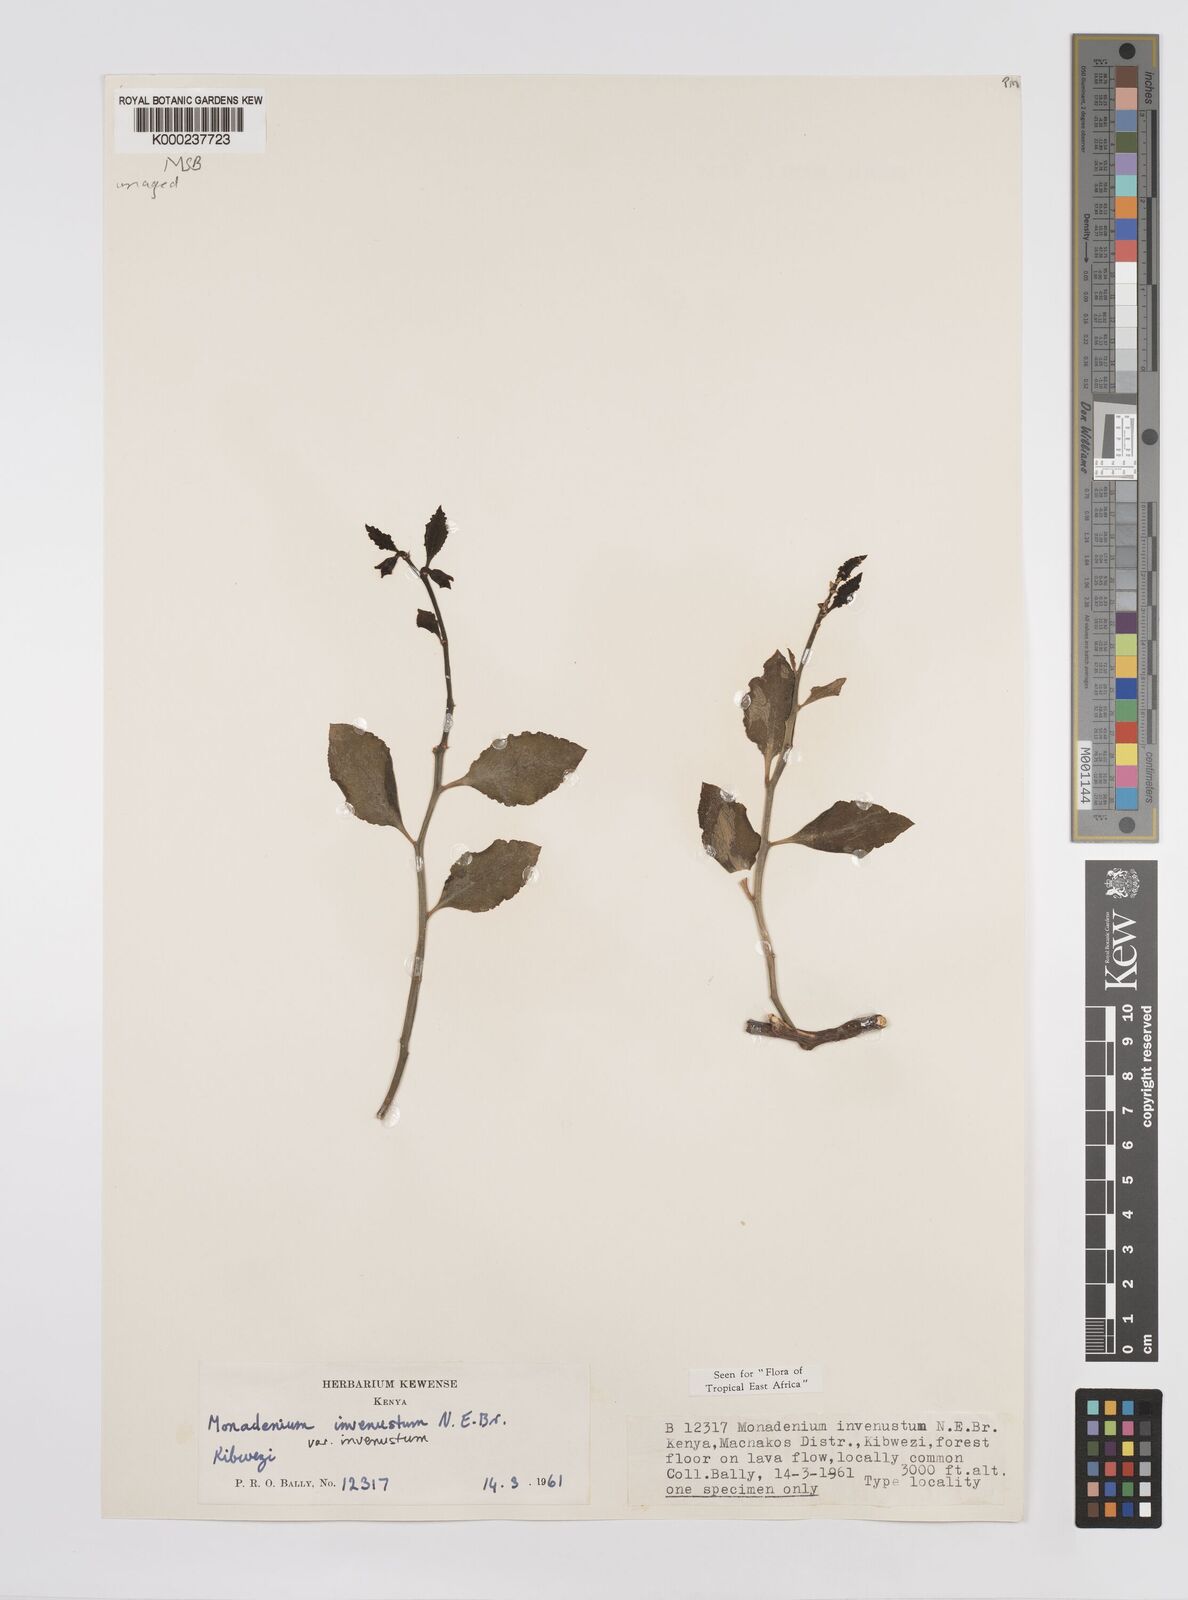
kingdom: Plantae
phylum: Tracheophyta
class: Magnoliopsida
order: Malpighiales
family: Euphorbiaceae
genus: Euphorbia
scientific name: Euphorbia invenusta
